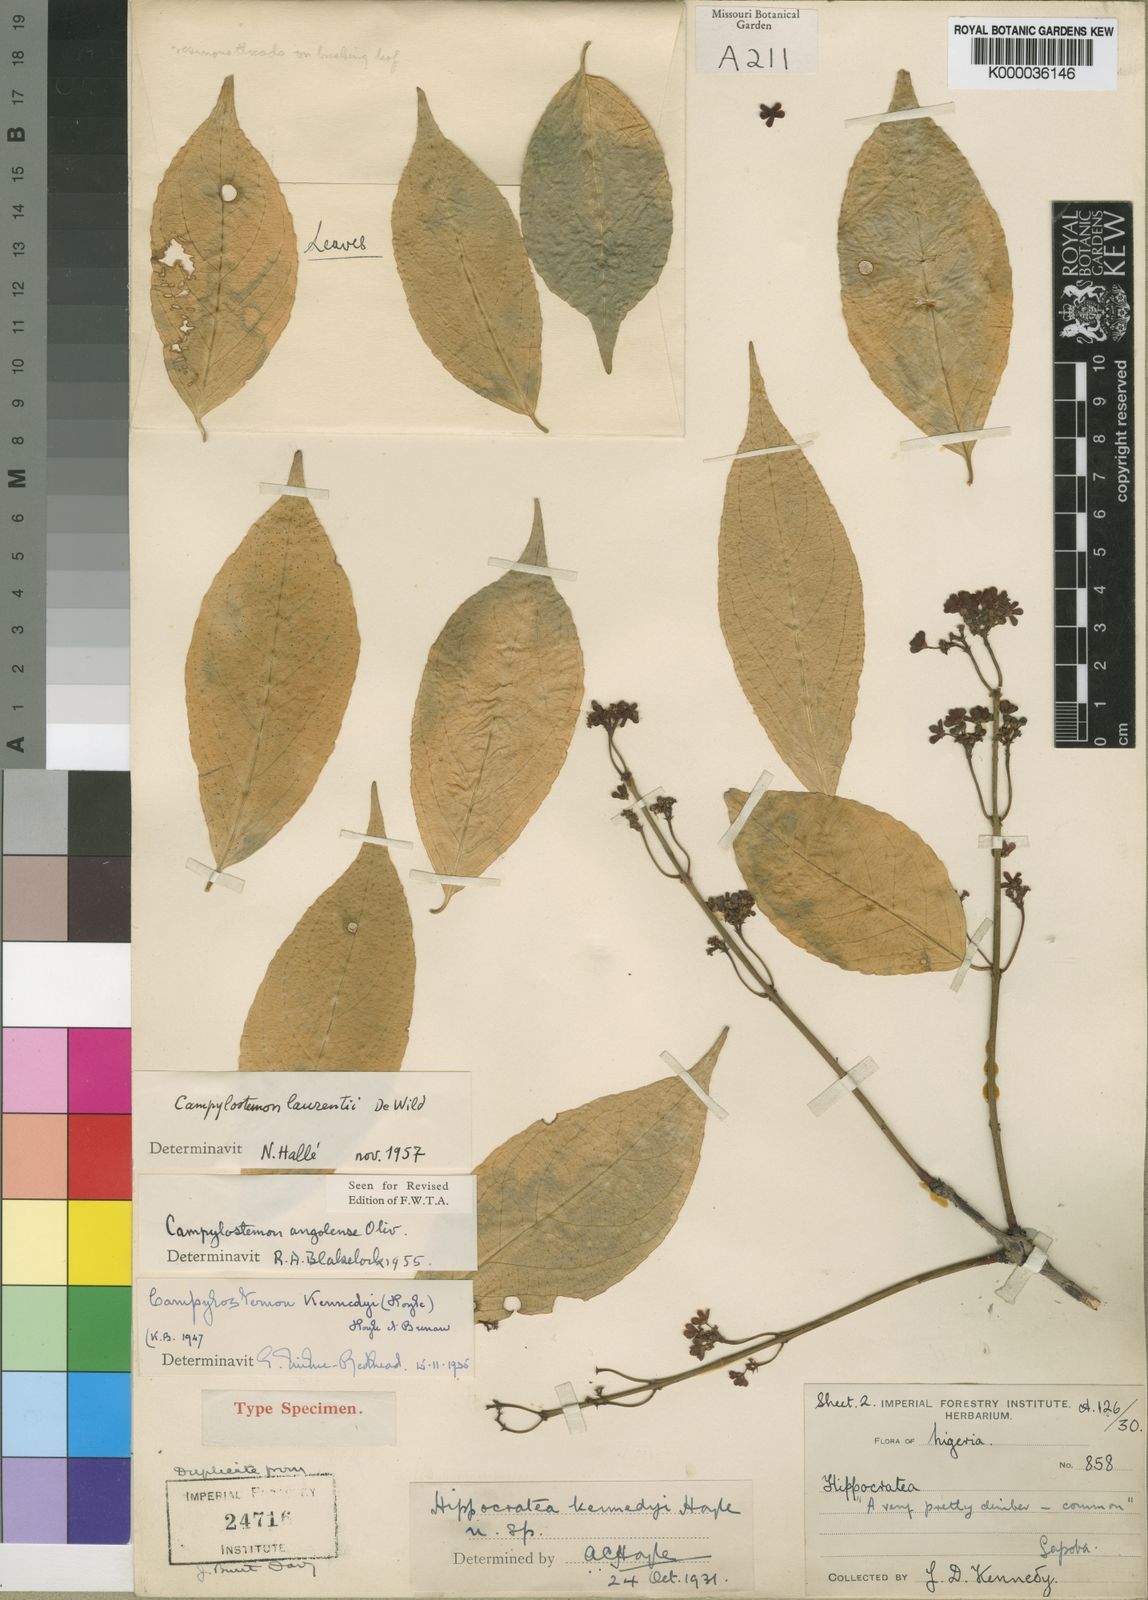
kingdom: Plantae
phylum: Tracheophyta
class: Magnoliopsida
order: Celastrales
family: Celastraceae
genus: Campylostemon
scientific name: Campylostemon laurentii
